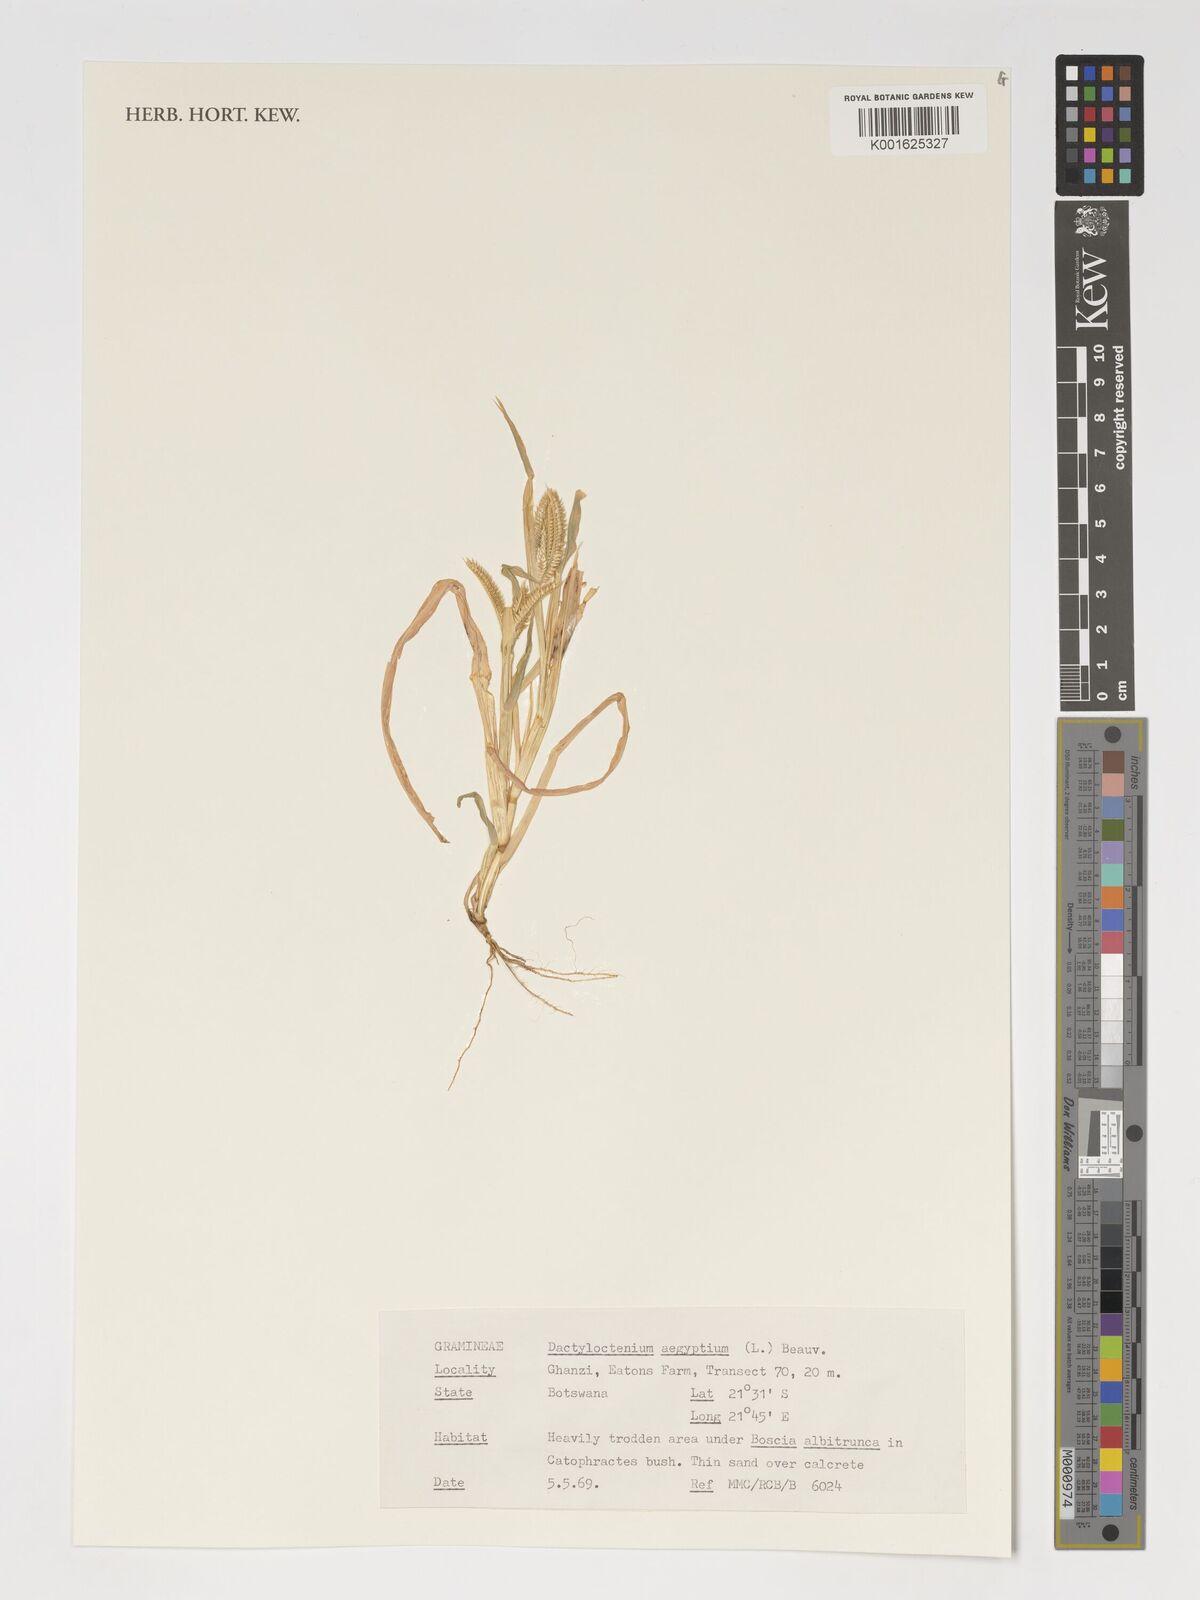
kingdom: Plantae
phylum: Tracheophyta
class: Liliopsida
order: Poales
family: Poaceae
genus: Dactyloctenium
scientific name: Dactyloctenium aegyptium
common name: Egyptian grass
